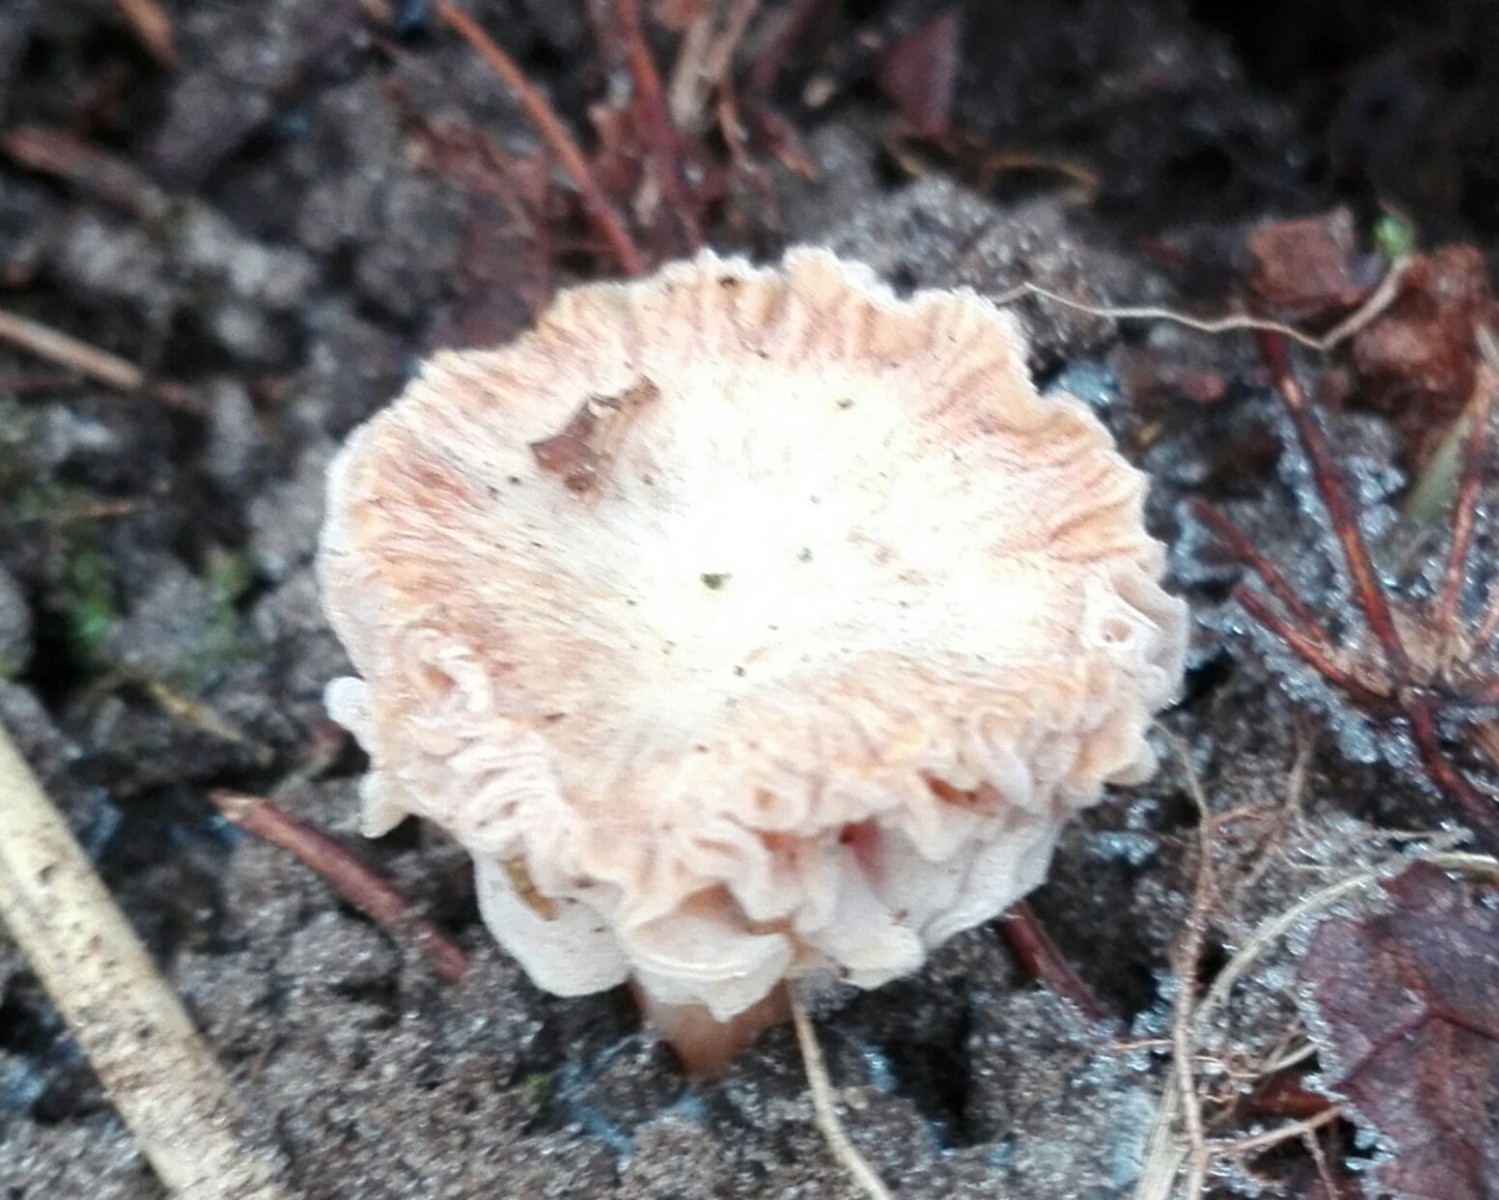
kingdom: Fungi
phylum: Ascomycota
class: Sordariomycetes
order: Hypocreales
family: Hypocreaceae
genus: Hypomyces
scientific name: Hypomyces tubariicola
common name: fnughat-snylteskorpe
